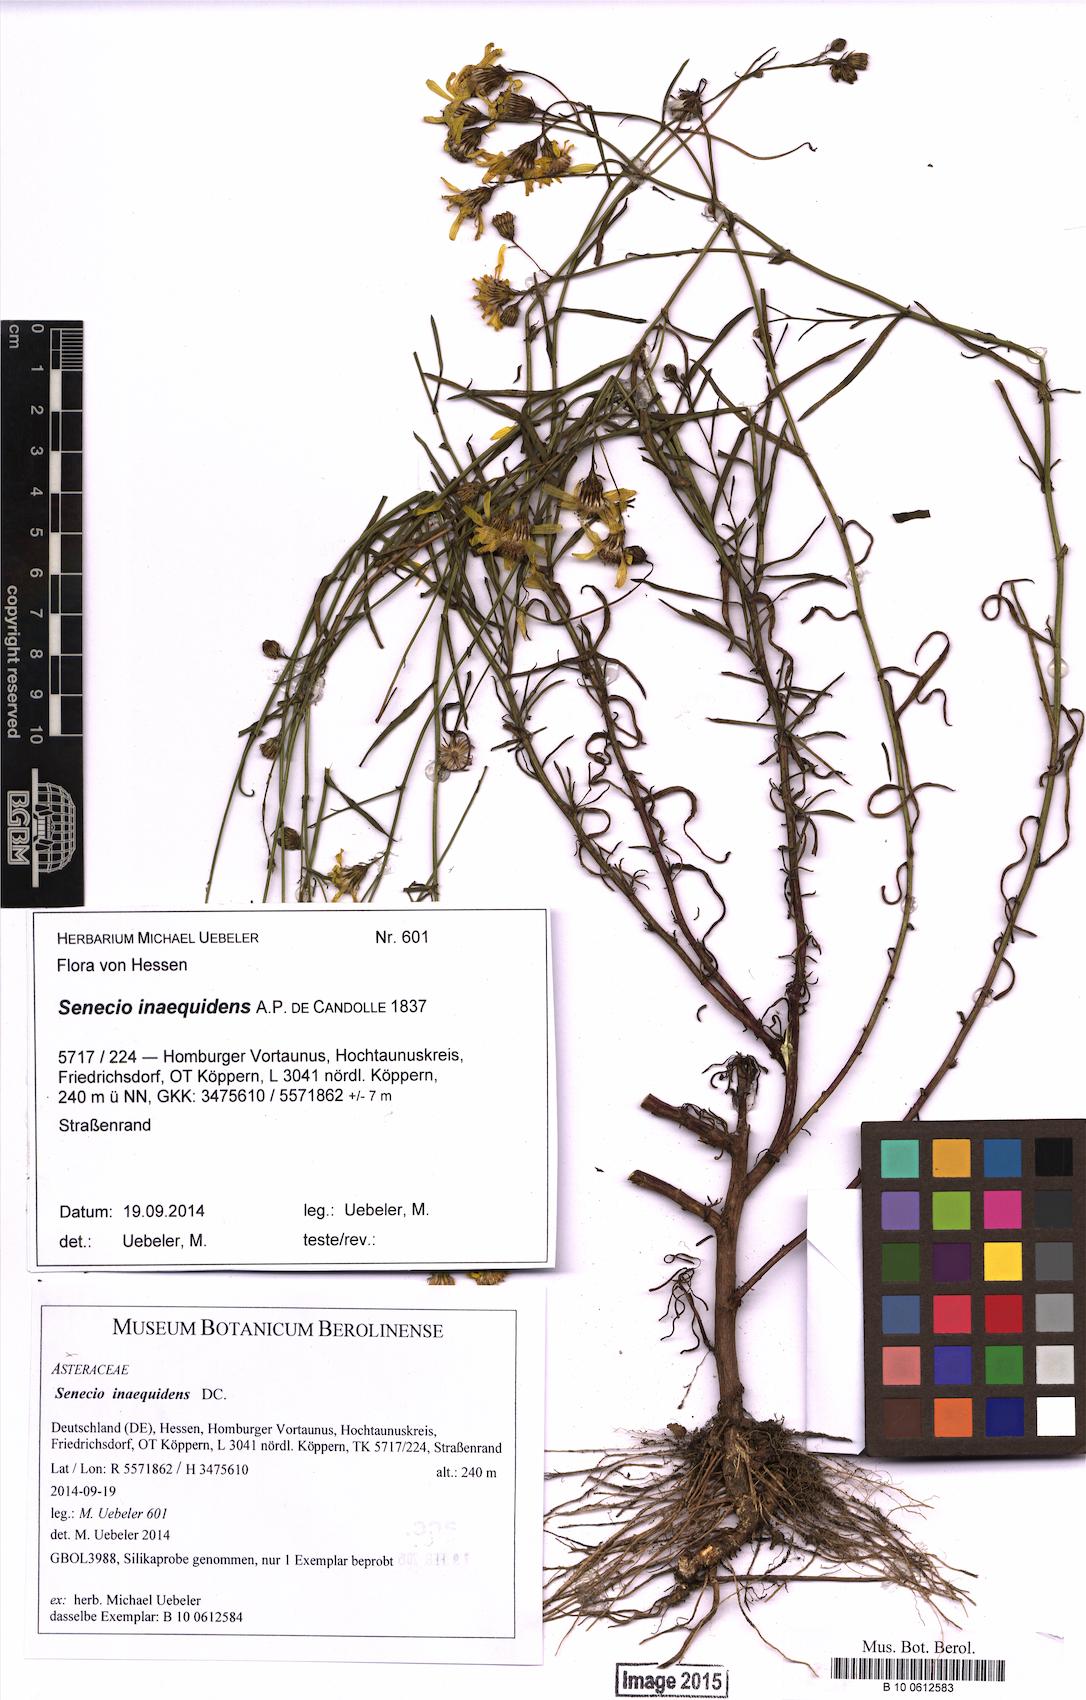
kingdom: Plantae
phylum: Tracheophyta
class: Magnoliopsida
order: Asterales
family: Asteraceae
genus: Senecio
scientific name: Senecio inaequidens
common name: Narrow-leaved ragwort
